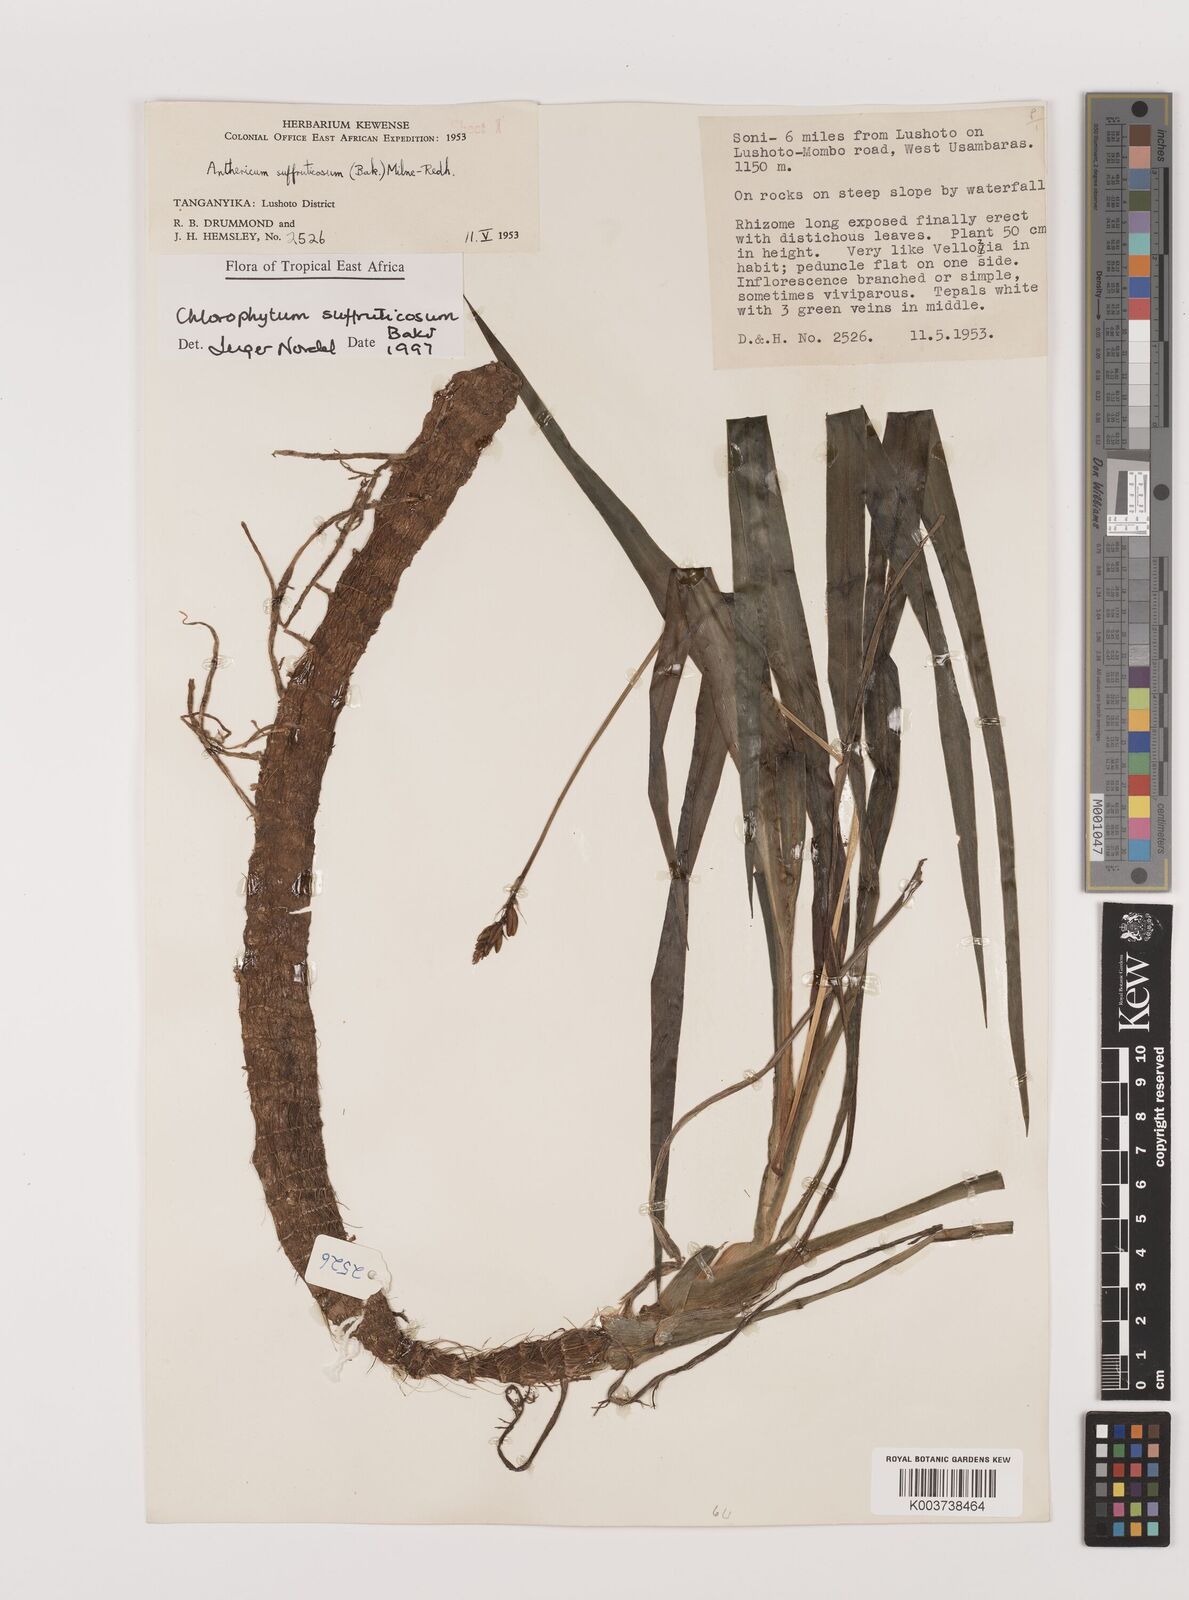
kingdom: Plantae
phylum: Tracheophyta
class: Liliopsida
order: Asparagales
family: Asparagaceae
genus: Chlorophytum
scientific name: Chlorophytum suffruticosum
